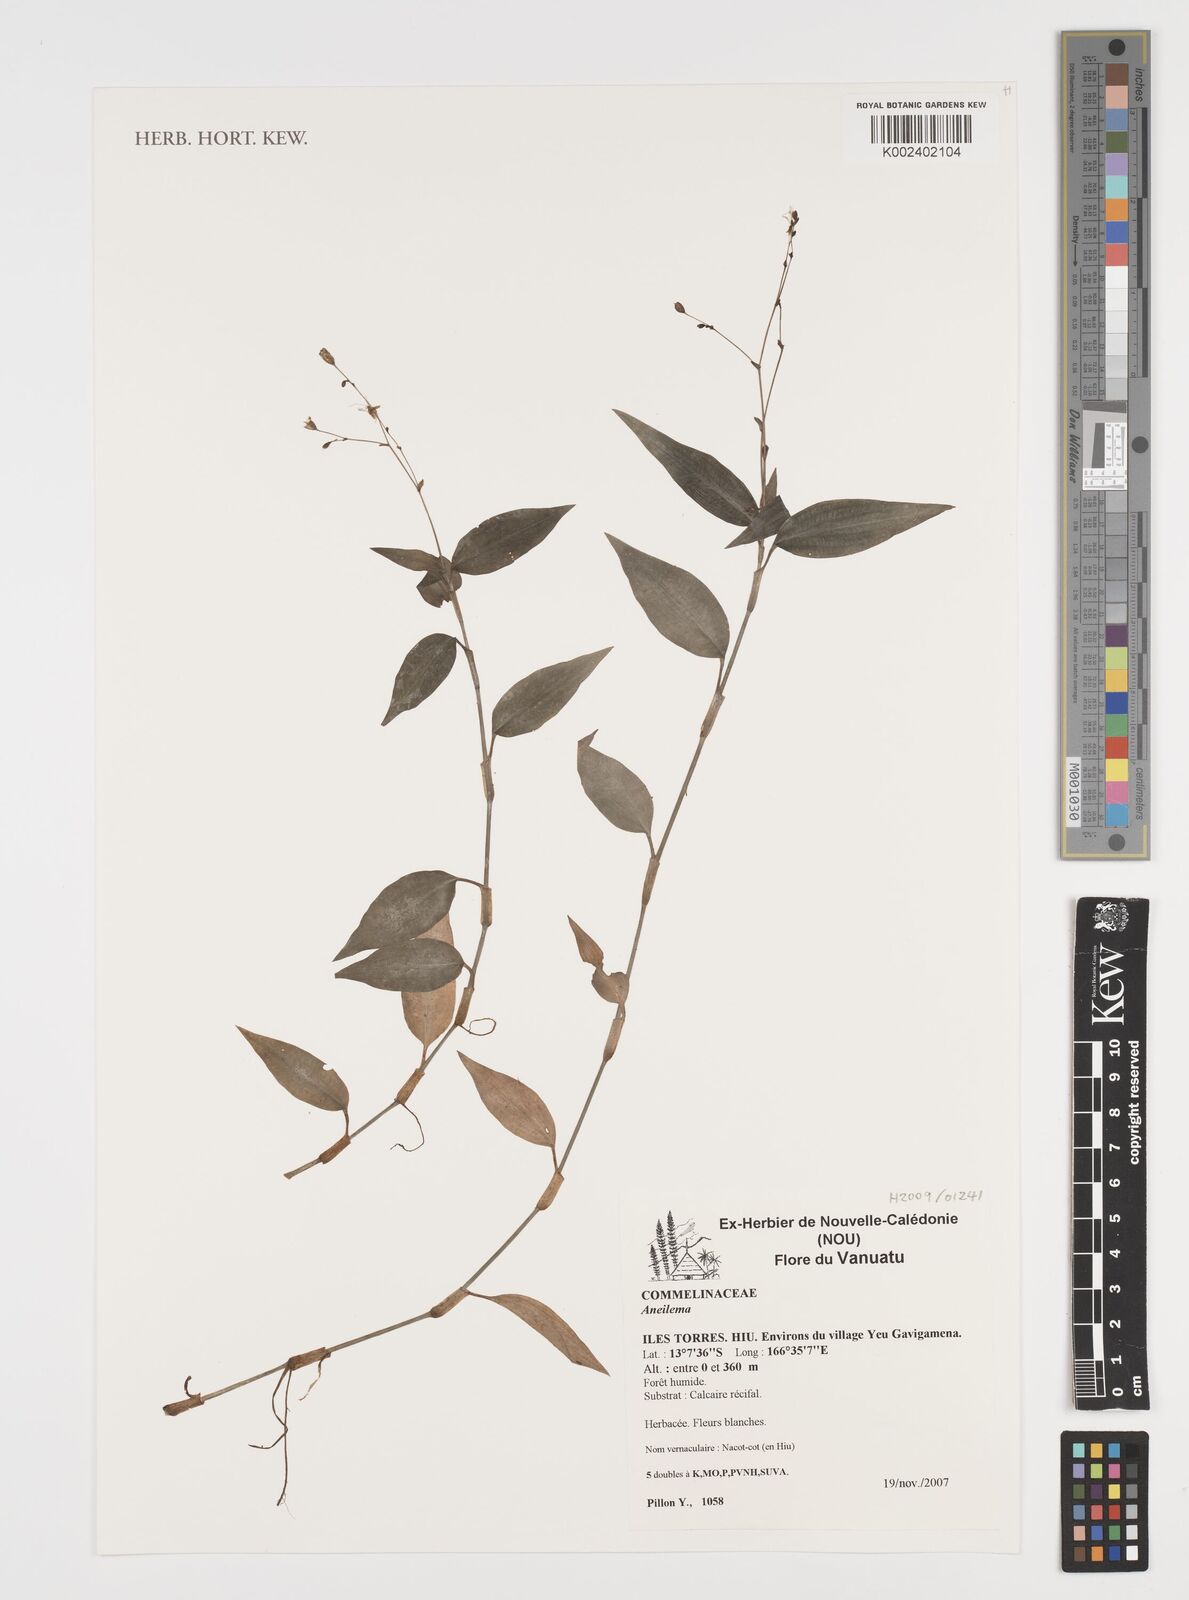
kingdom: Plantae
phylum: Tracheophyta
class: Liliopsida
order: Commelinales
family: Commelinaceae
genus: Aneilema
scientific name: Aneilema
